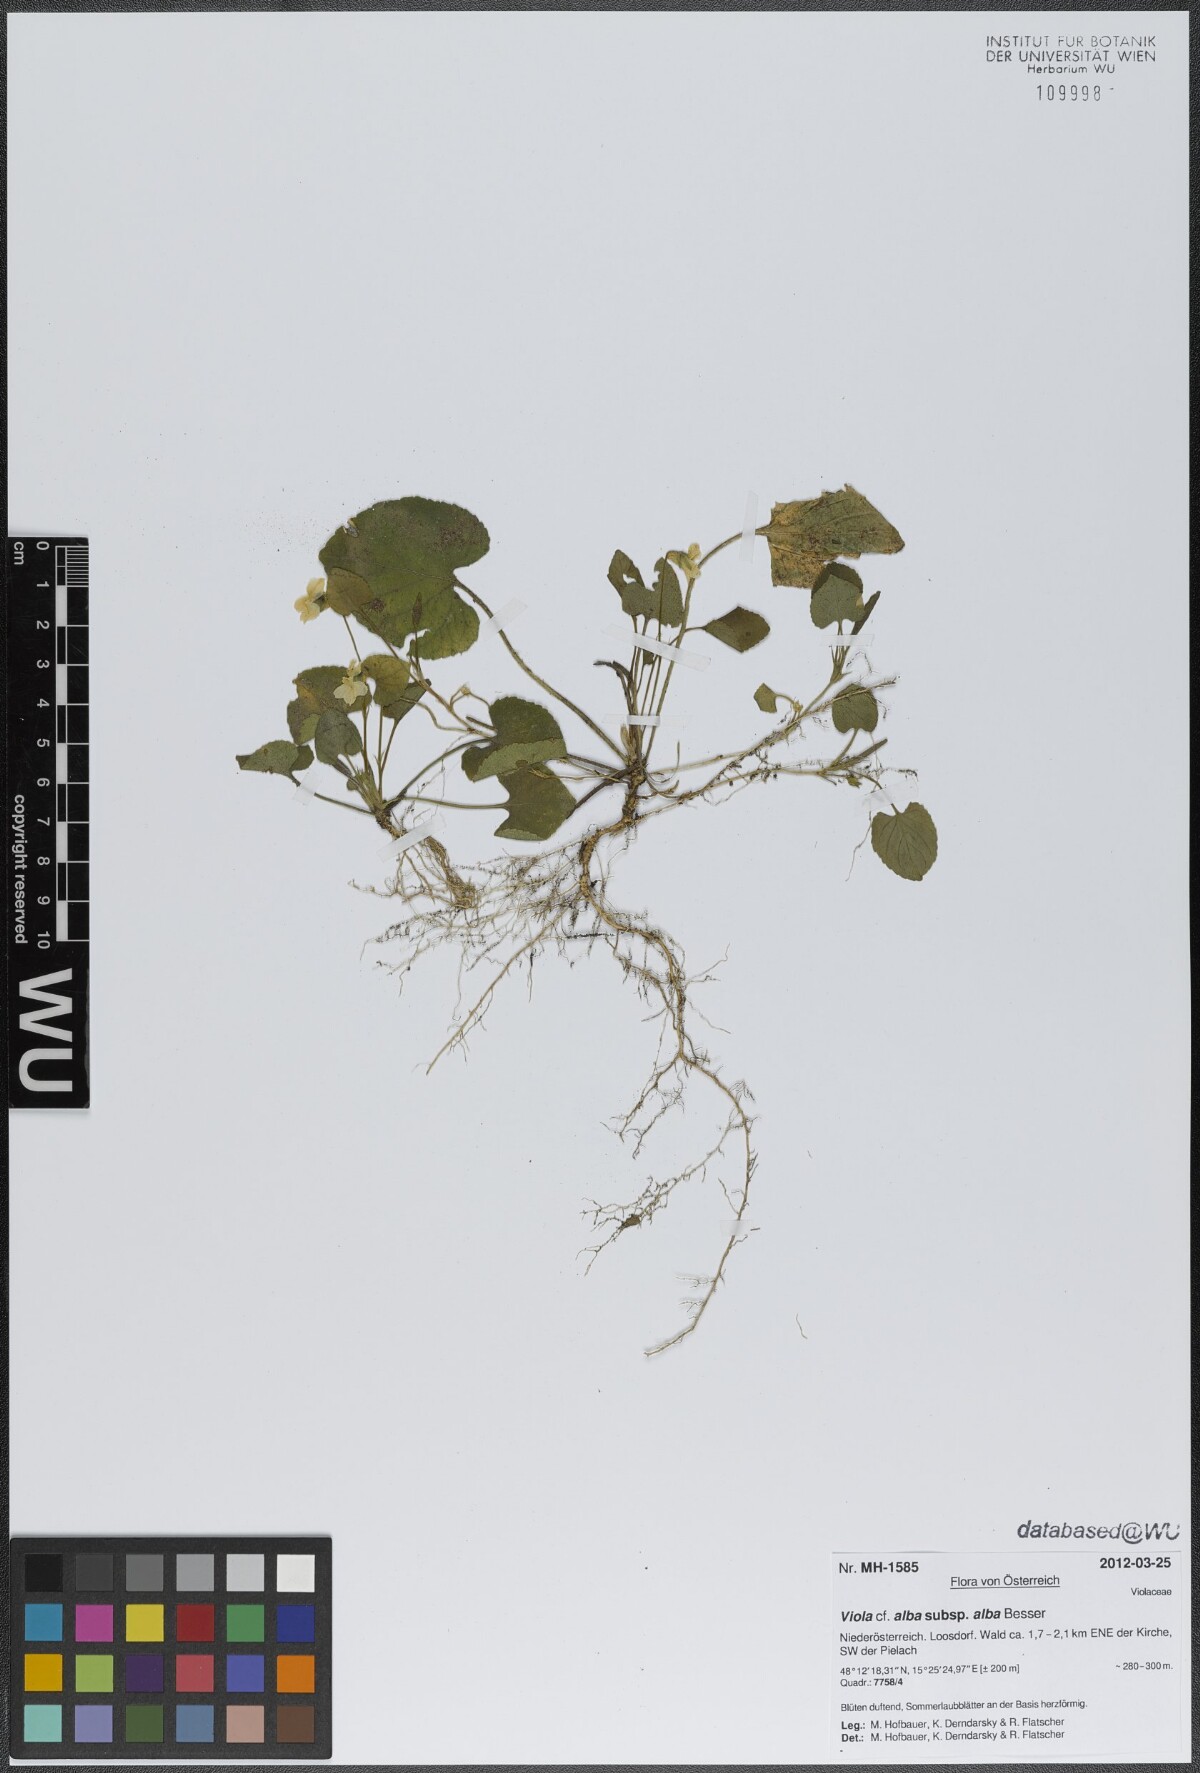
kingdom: Plantae
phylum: Tracheophyta
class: Magnoliopsida
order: Malpighiales
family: Violaceae
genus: Viola
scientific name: Viola alba
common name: White violet
